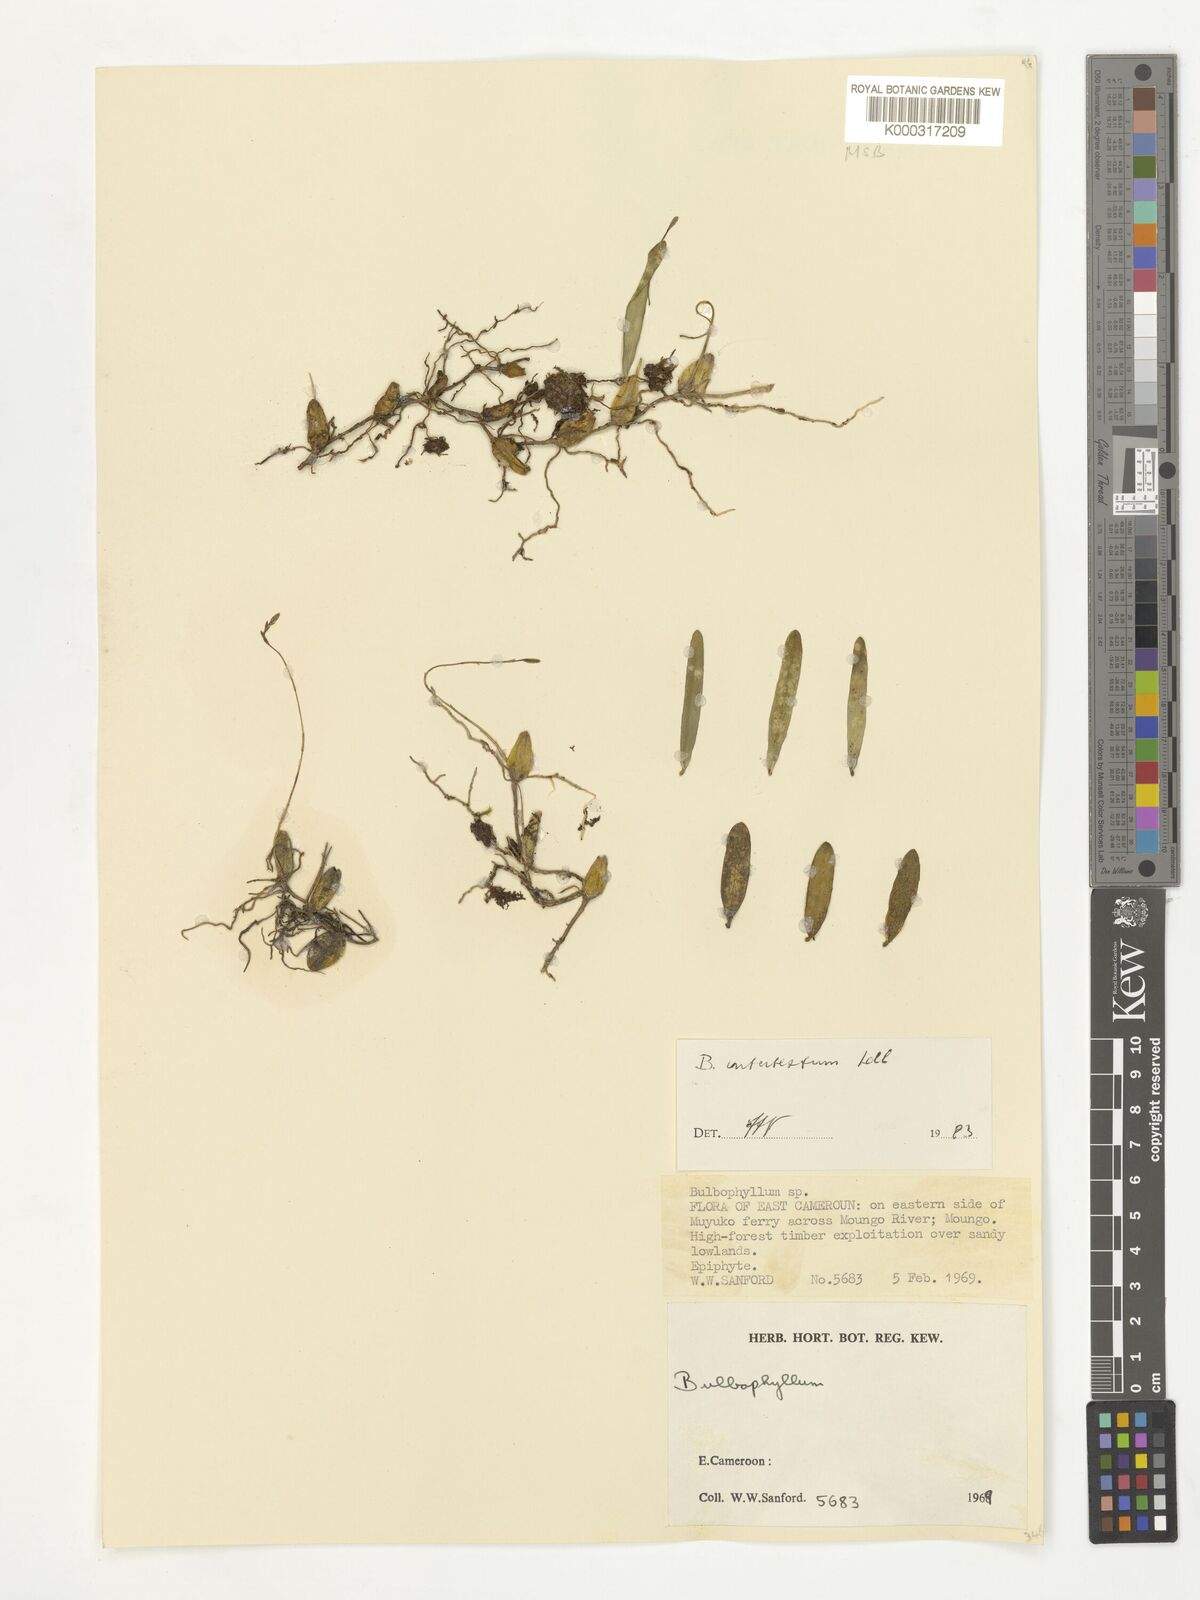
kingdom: Plantae
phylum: Tracheophyta
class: Liliopsida
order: Asparagales
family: Orchidaceae
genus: Bulbophyllum
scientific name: Bulbophyllum intertextum
